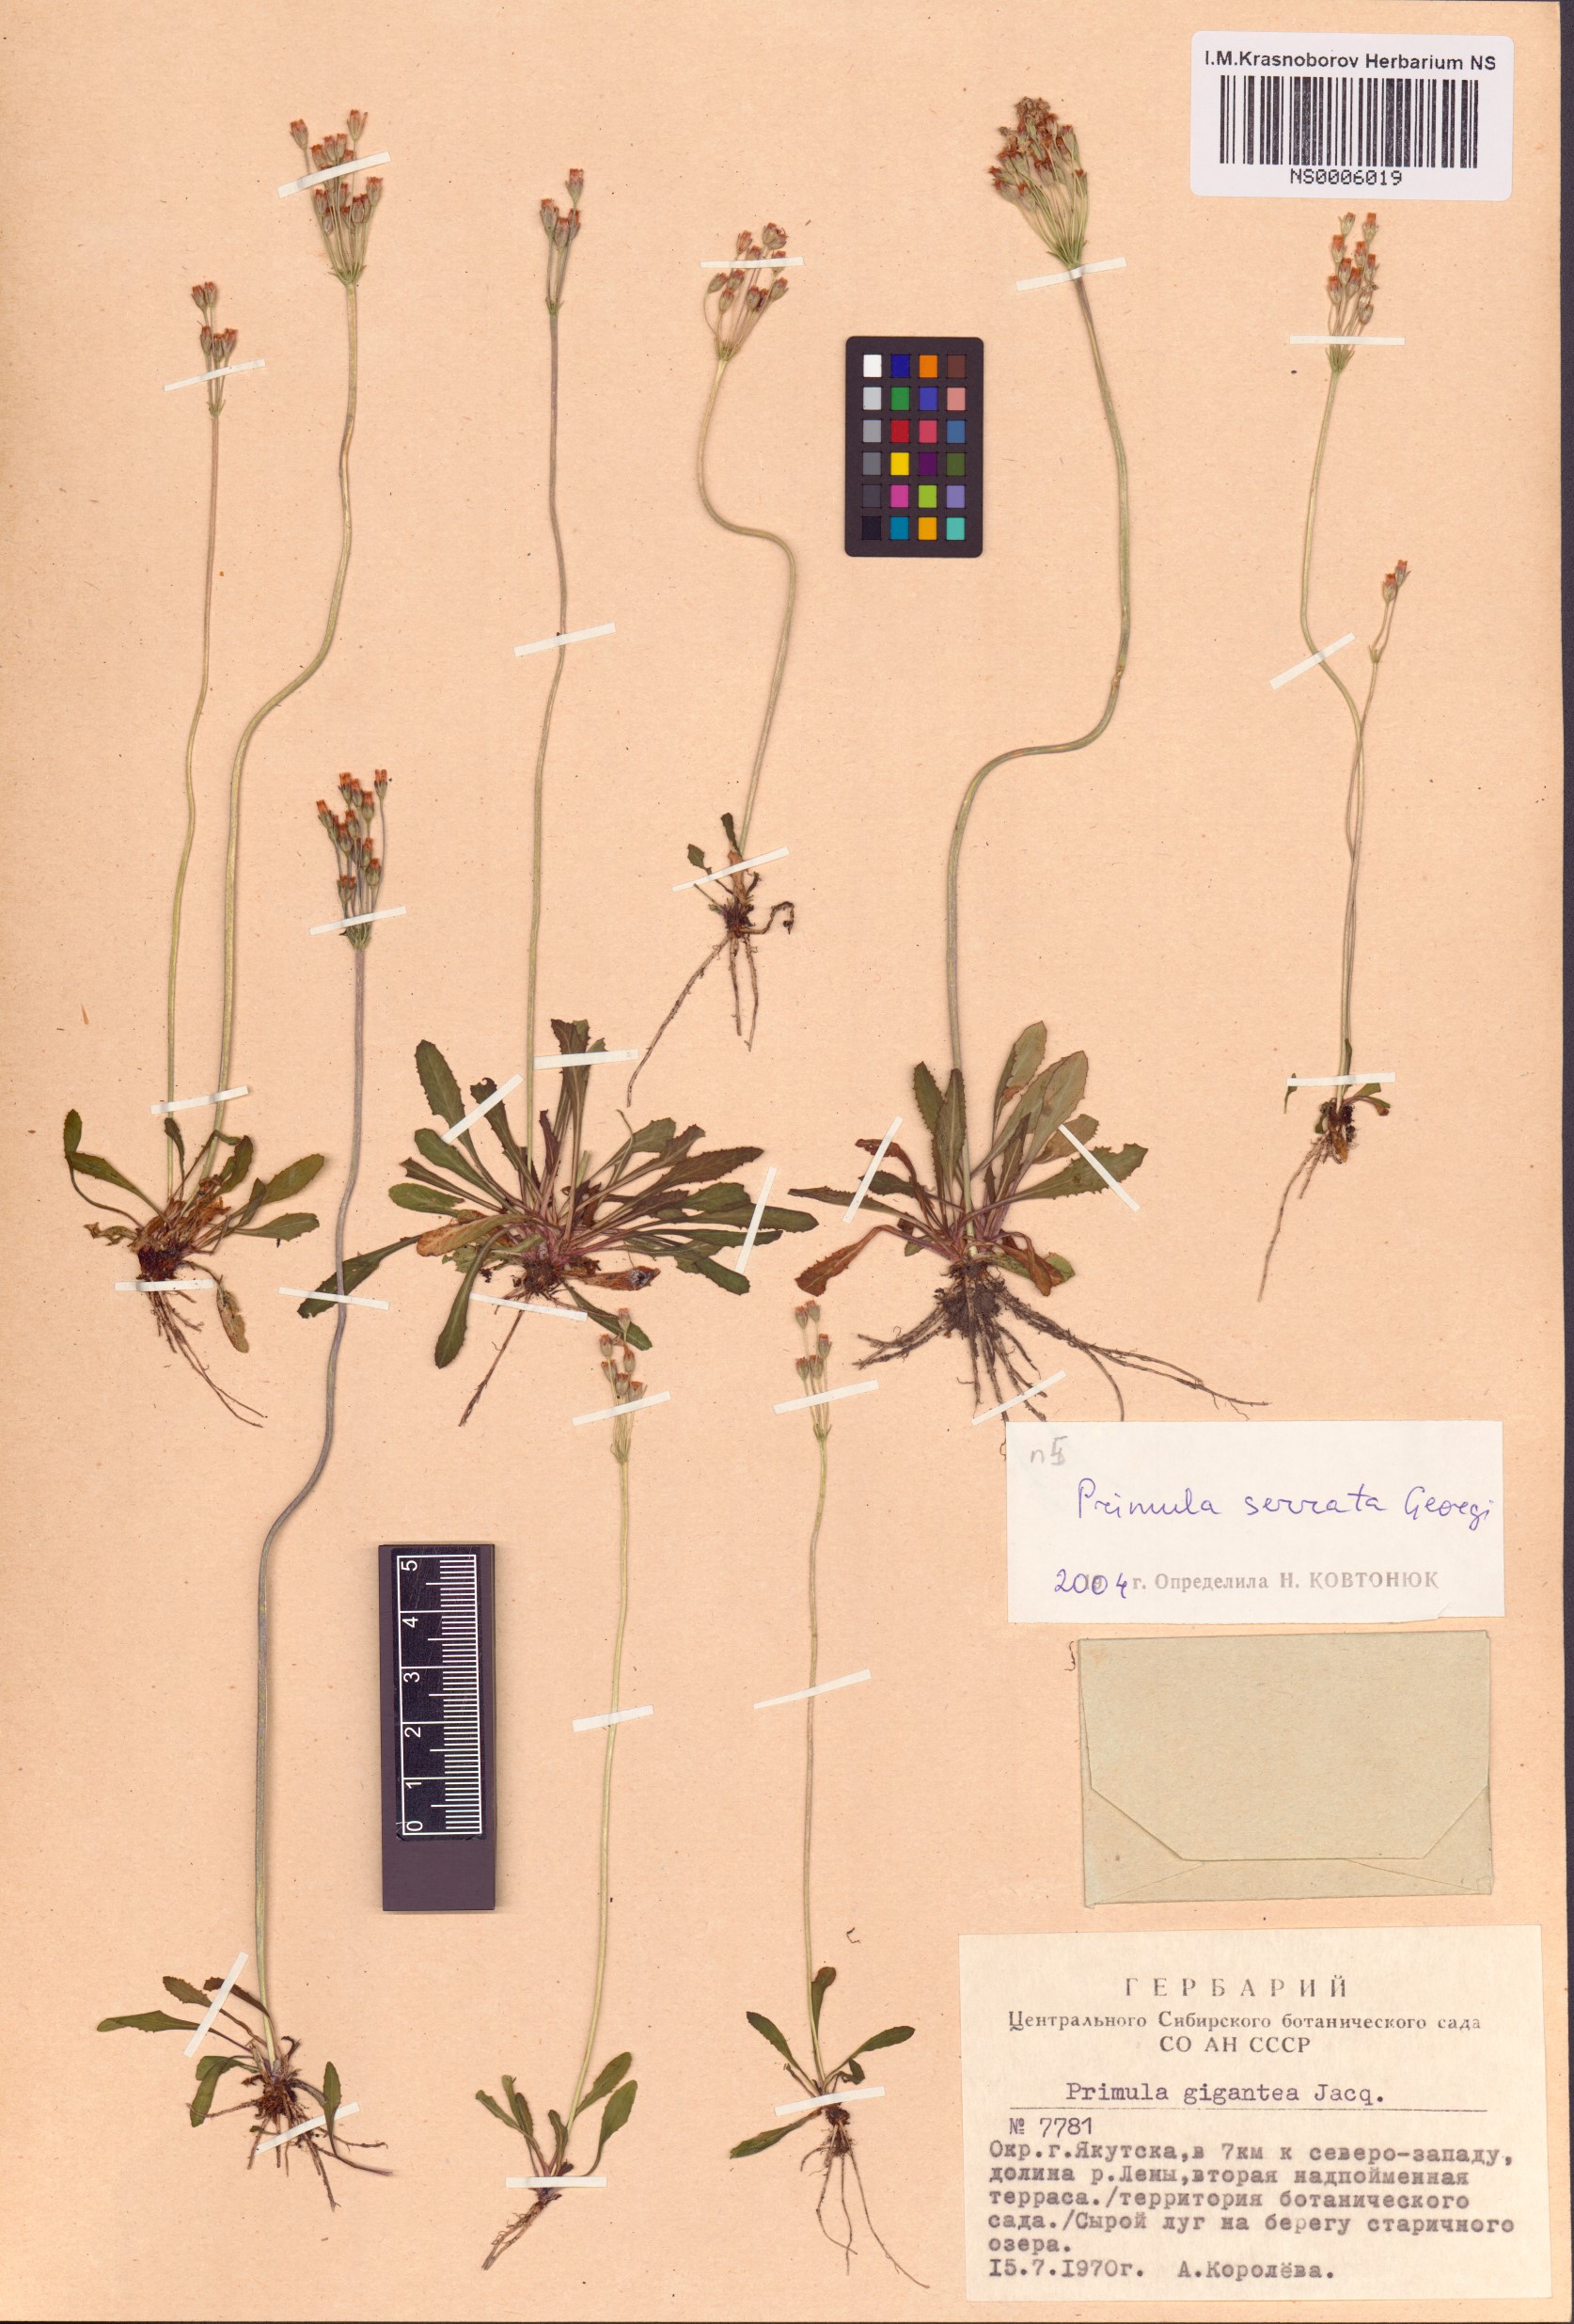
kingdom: Plantae
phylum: Tracheophyta
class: Magnoliopsida
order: Ericales
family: Primulaceae
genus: Primula
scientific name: Primula serrata
